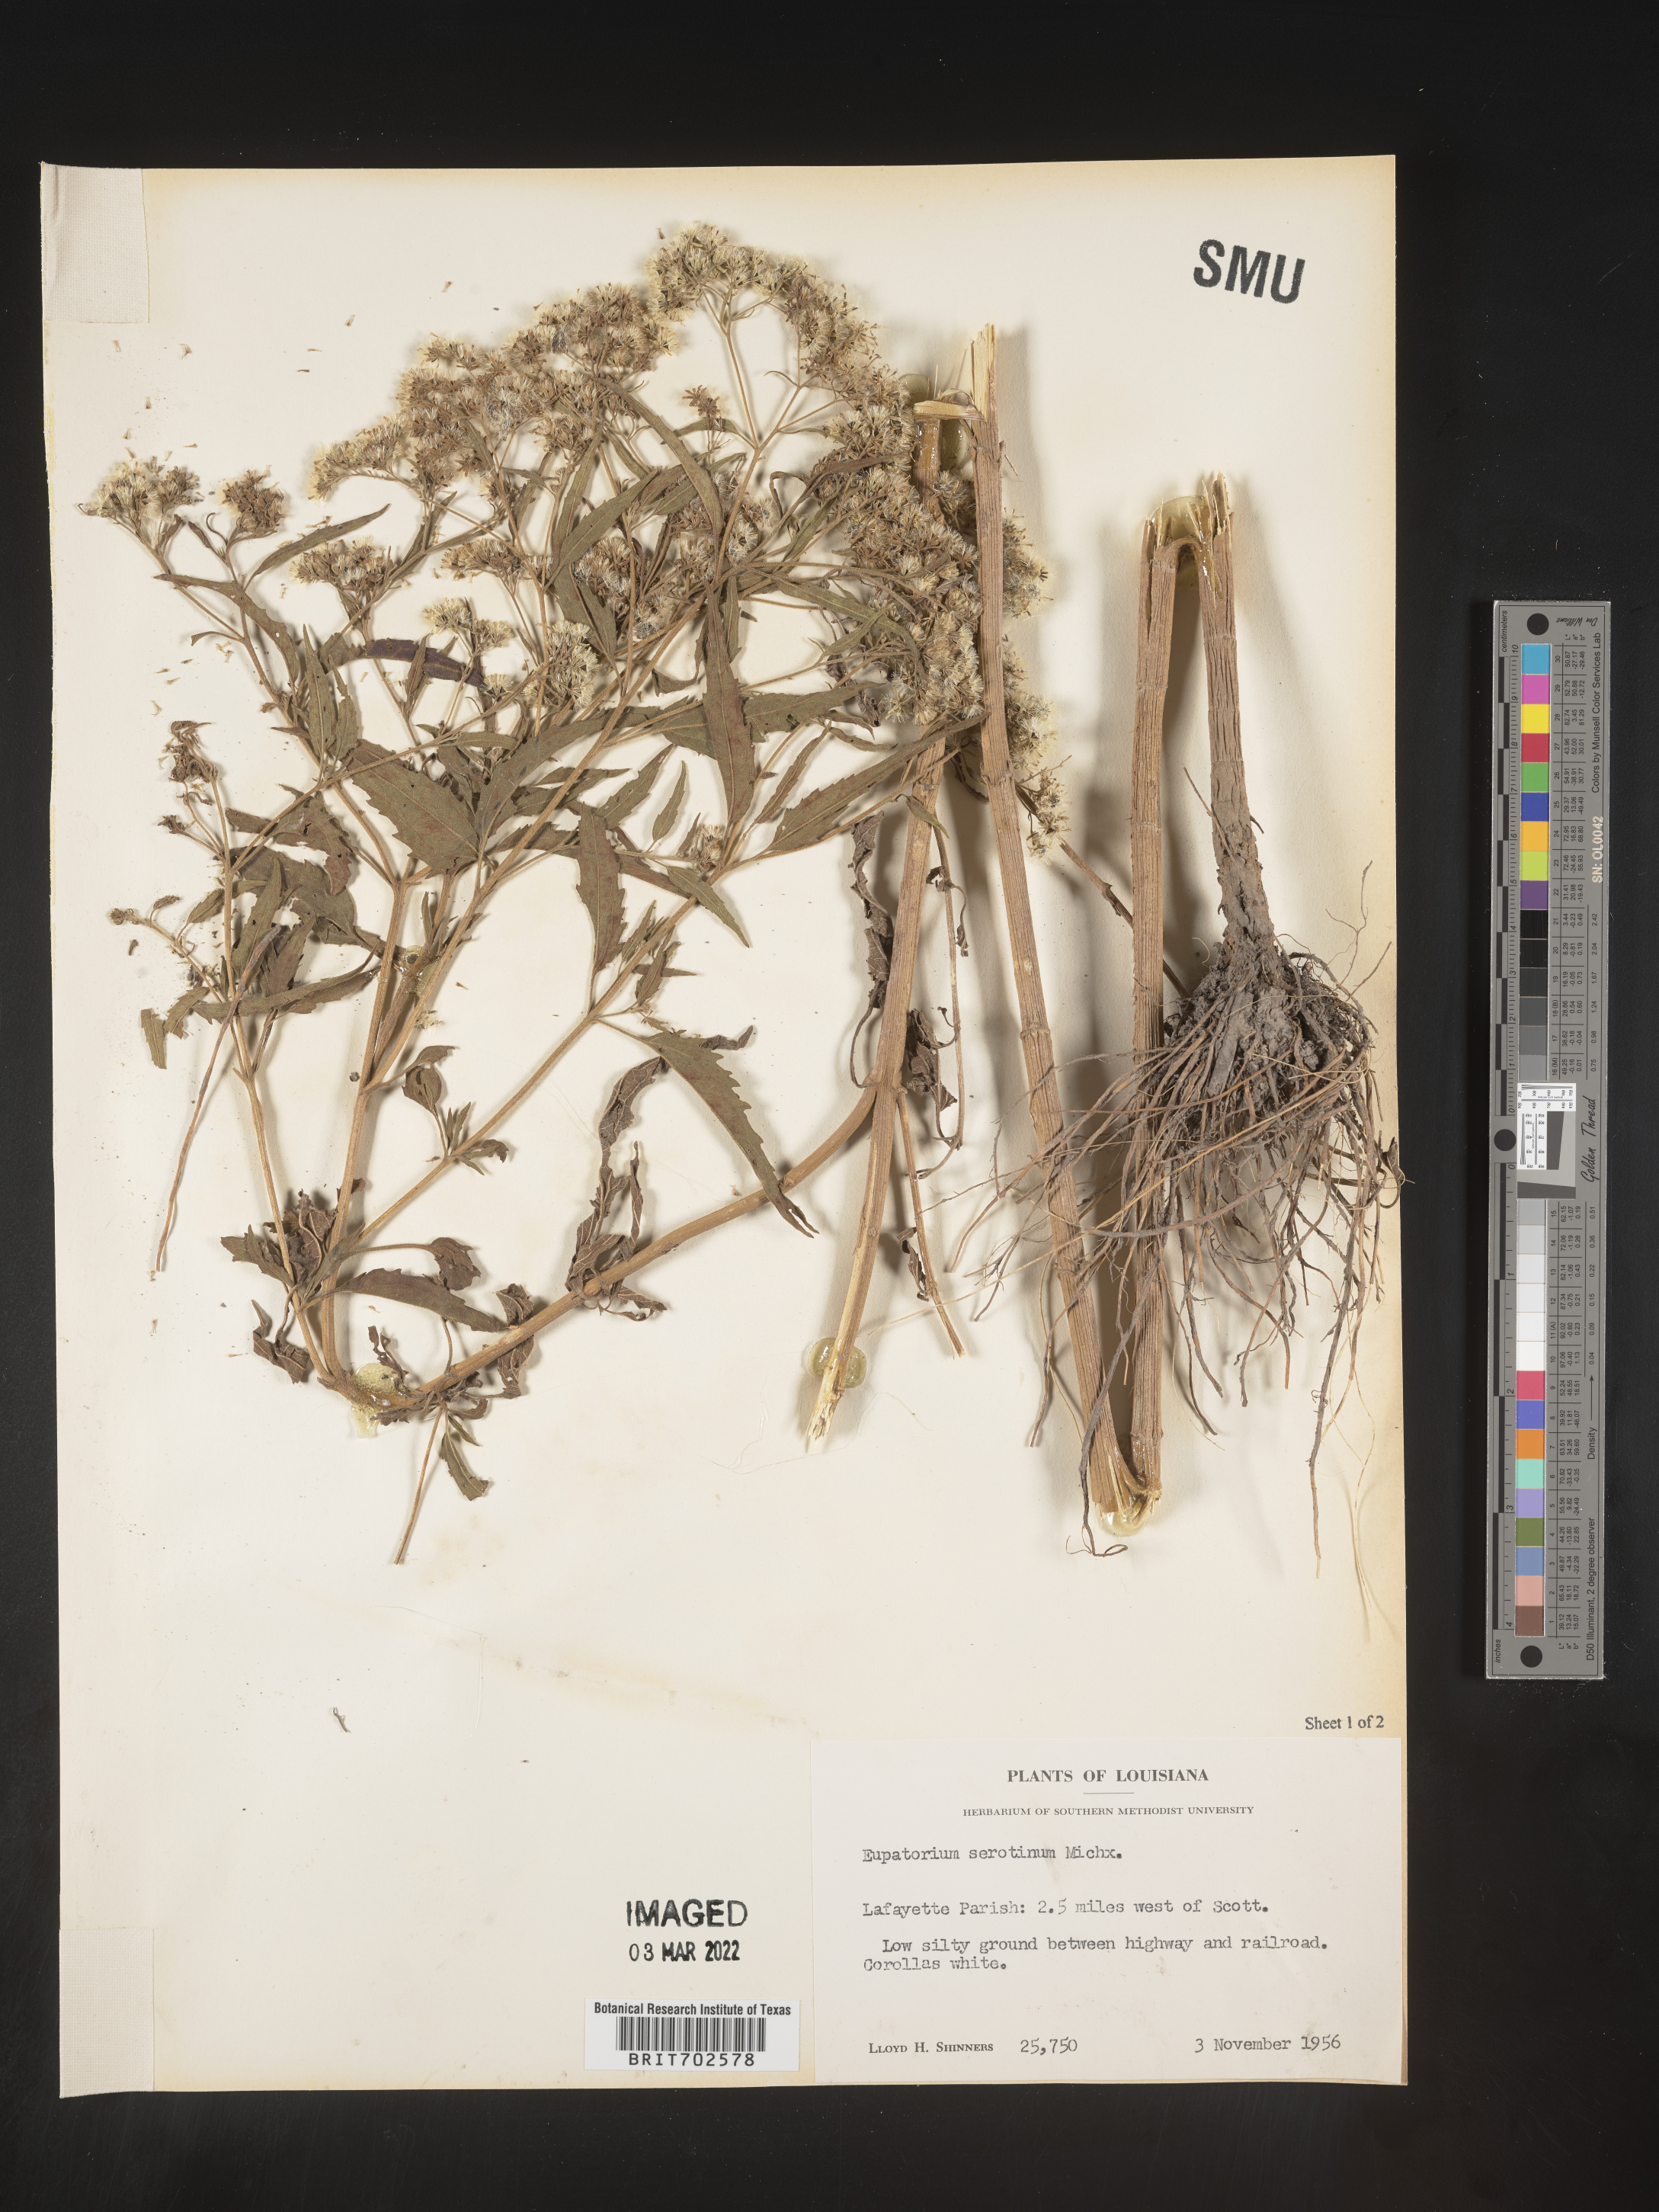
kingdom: Plantae
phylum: Tracheophyta
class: Magnoliopsida
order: Asterales
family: Asteraceae
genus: Eupatorium
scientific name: Eupatorium serotinum
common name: Late boneset
